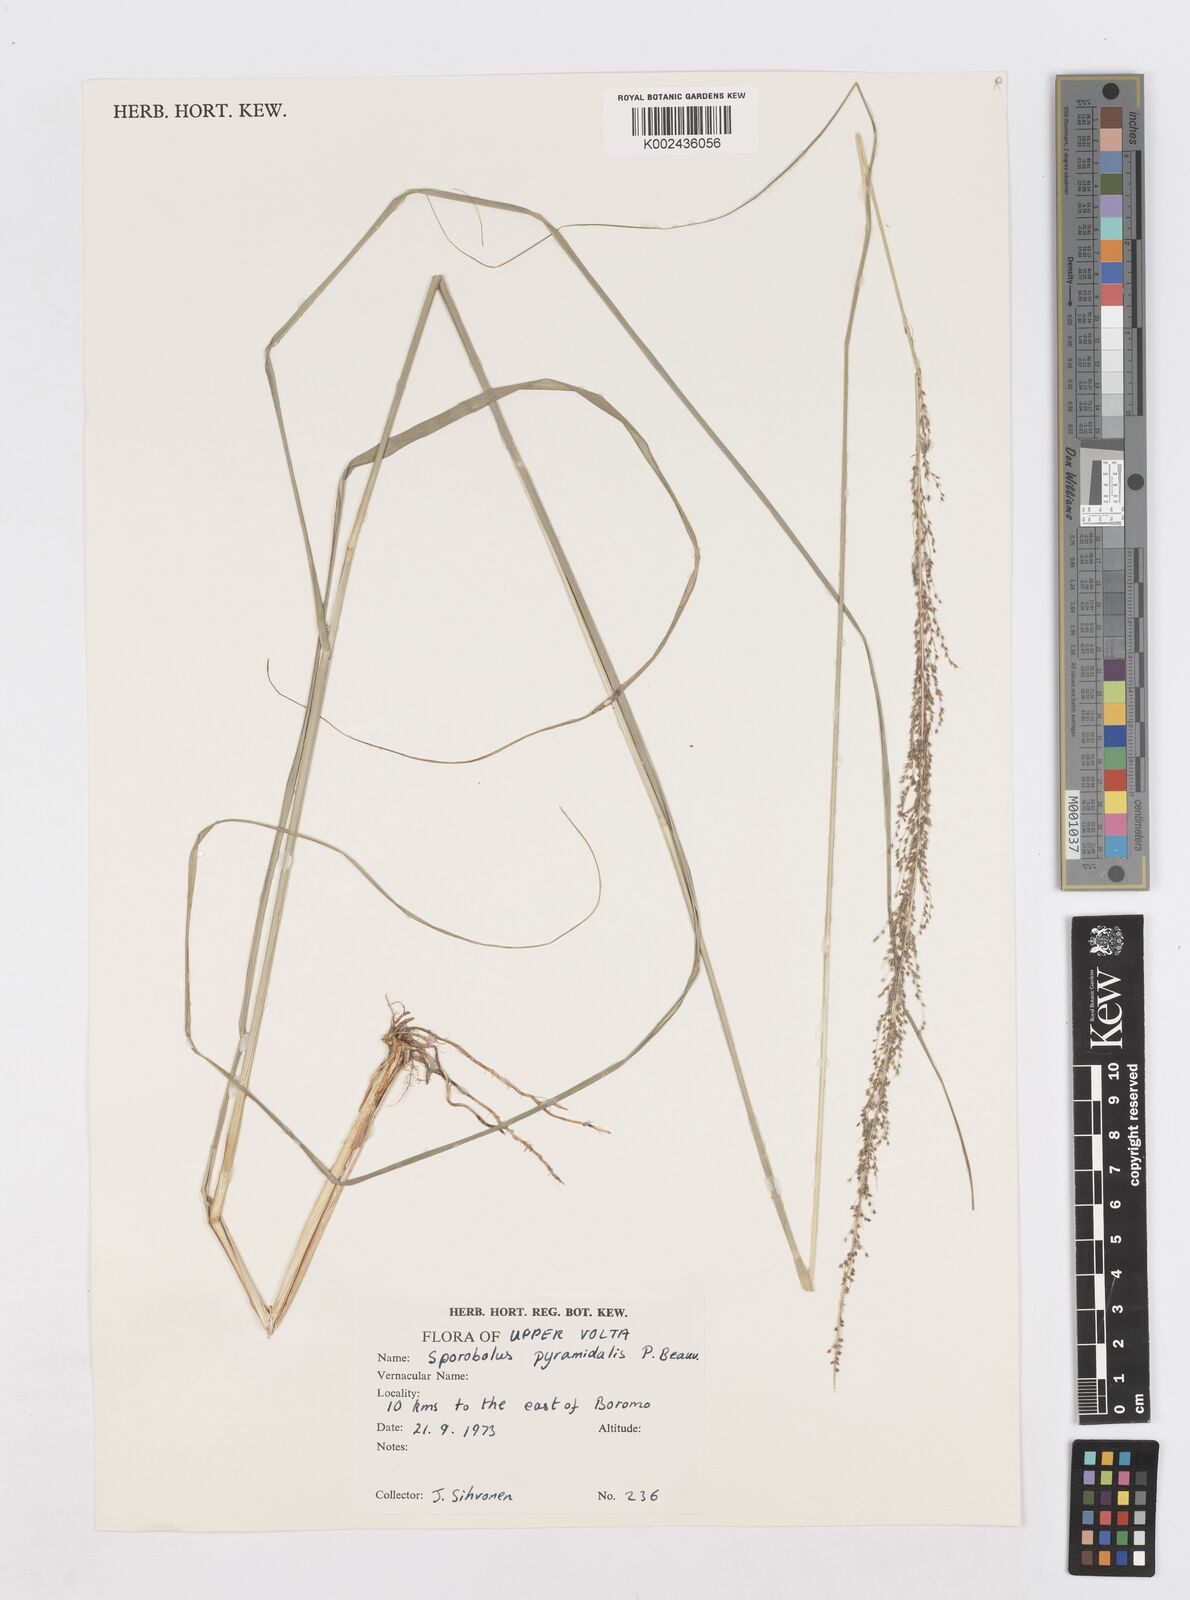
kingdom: Plantae
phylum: Tracheophyta
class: Liliopsida
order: Poales
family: Poaceae
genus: Sporobolus
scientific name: Sporobolus pyramidalis
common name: West indian dropseed
